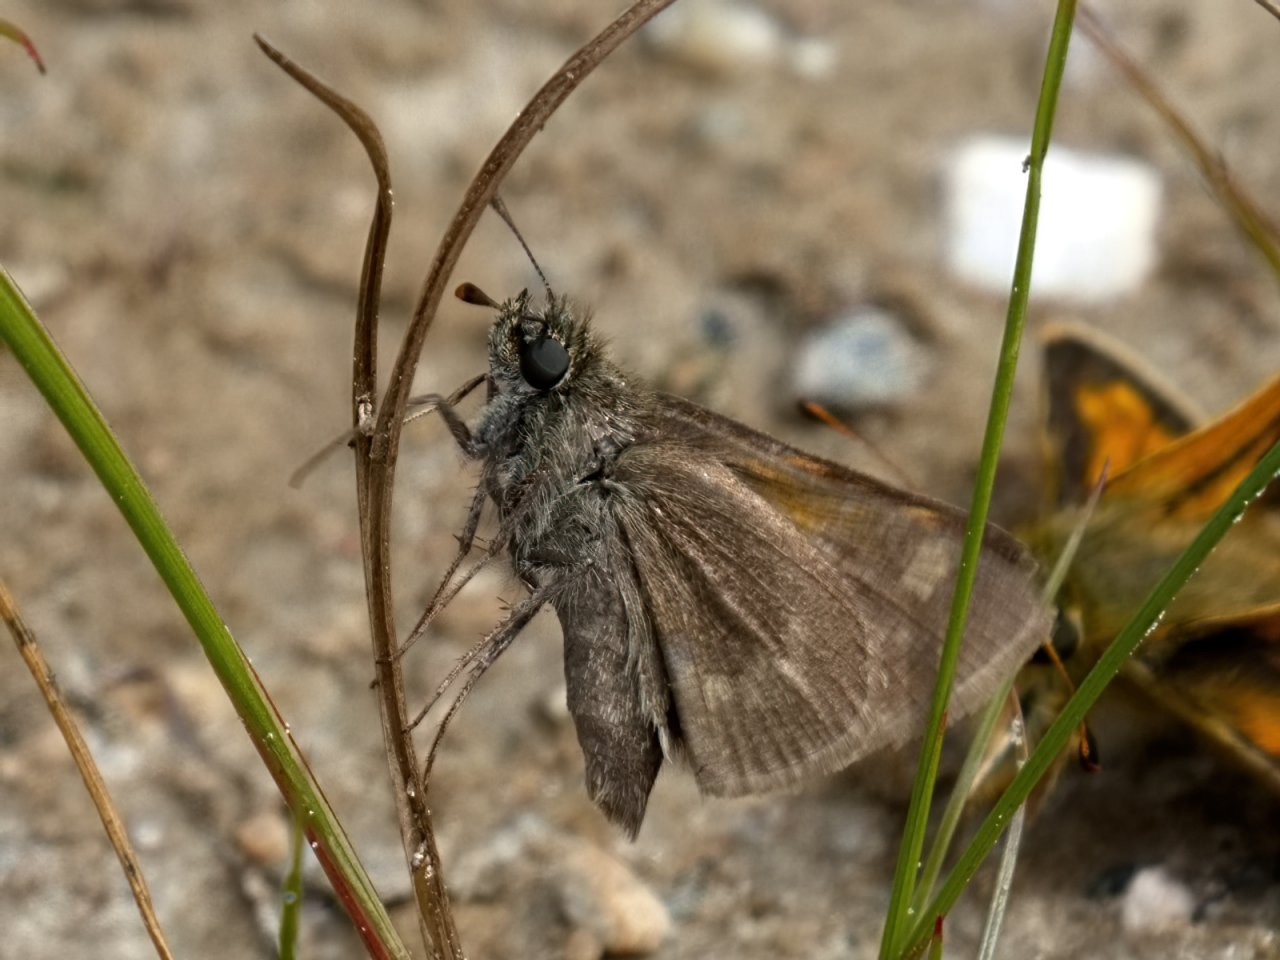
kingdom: Animalia
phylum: Arthropoda
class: Insecta
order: Lepidoptera
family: Hesperiidae
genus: Polites
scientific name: Polites themistocles
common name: Tawny-edged Skipper
